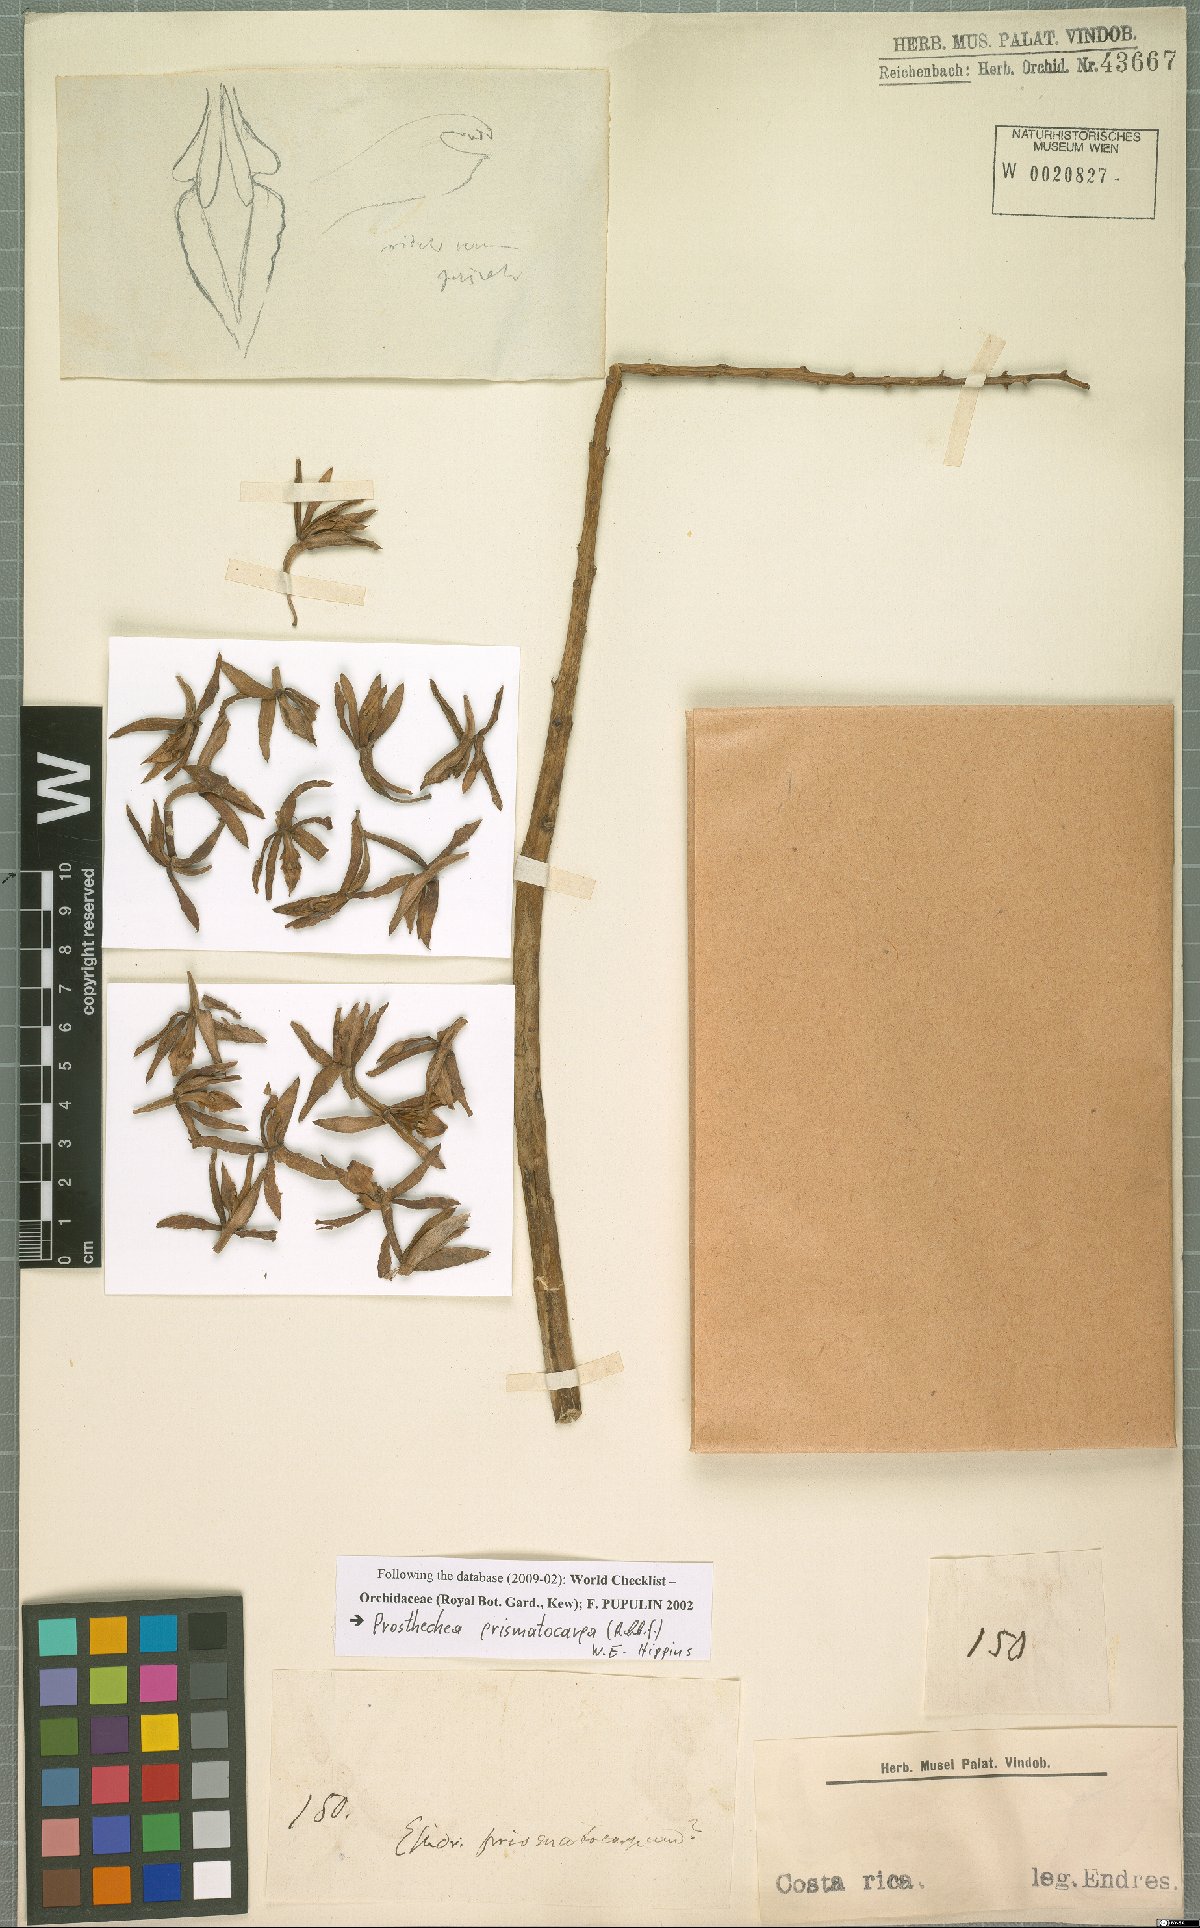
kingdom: Plantae
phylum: Tracheophyta
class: Liliopsida
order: Asparagales
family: Orchidaceae
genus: Prosthechea
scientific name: Prosthechea prismatocarpa
